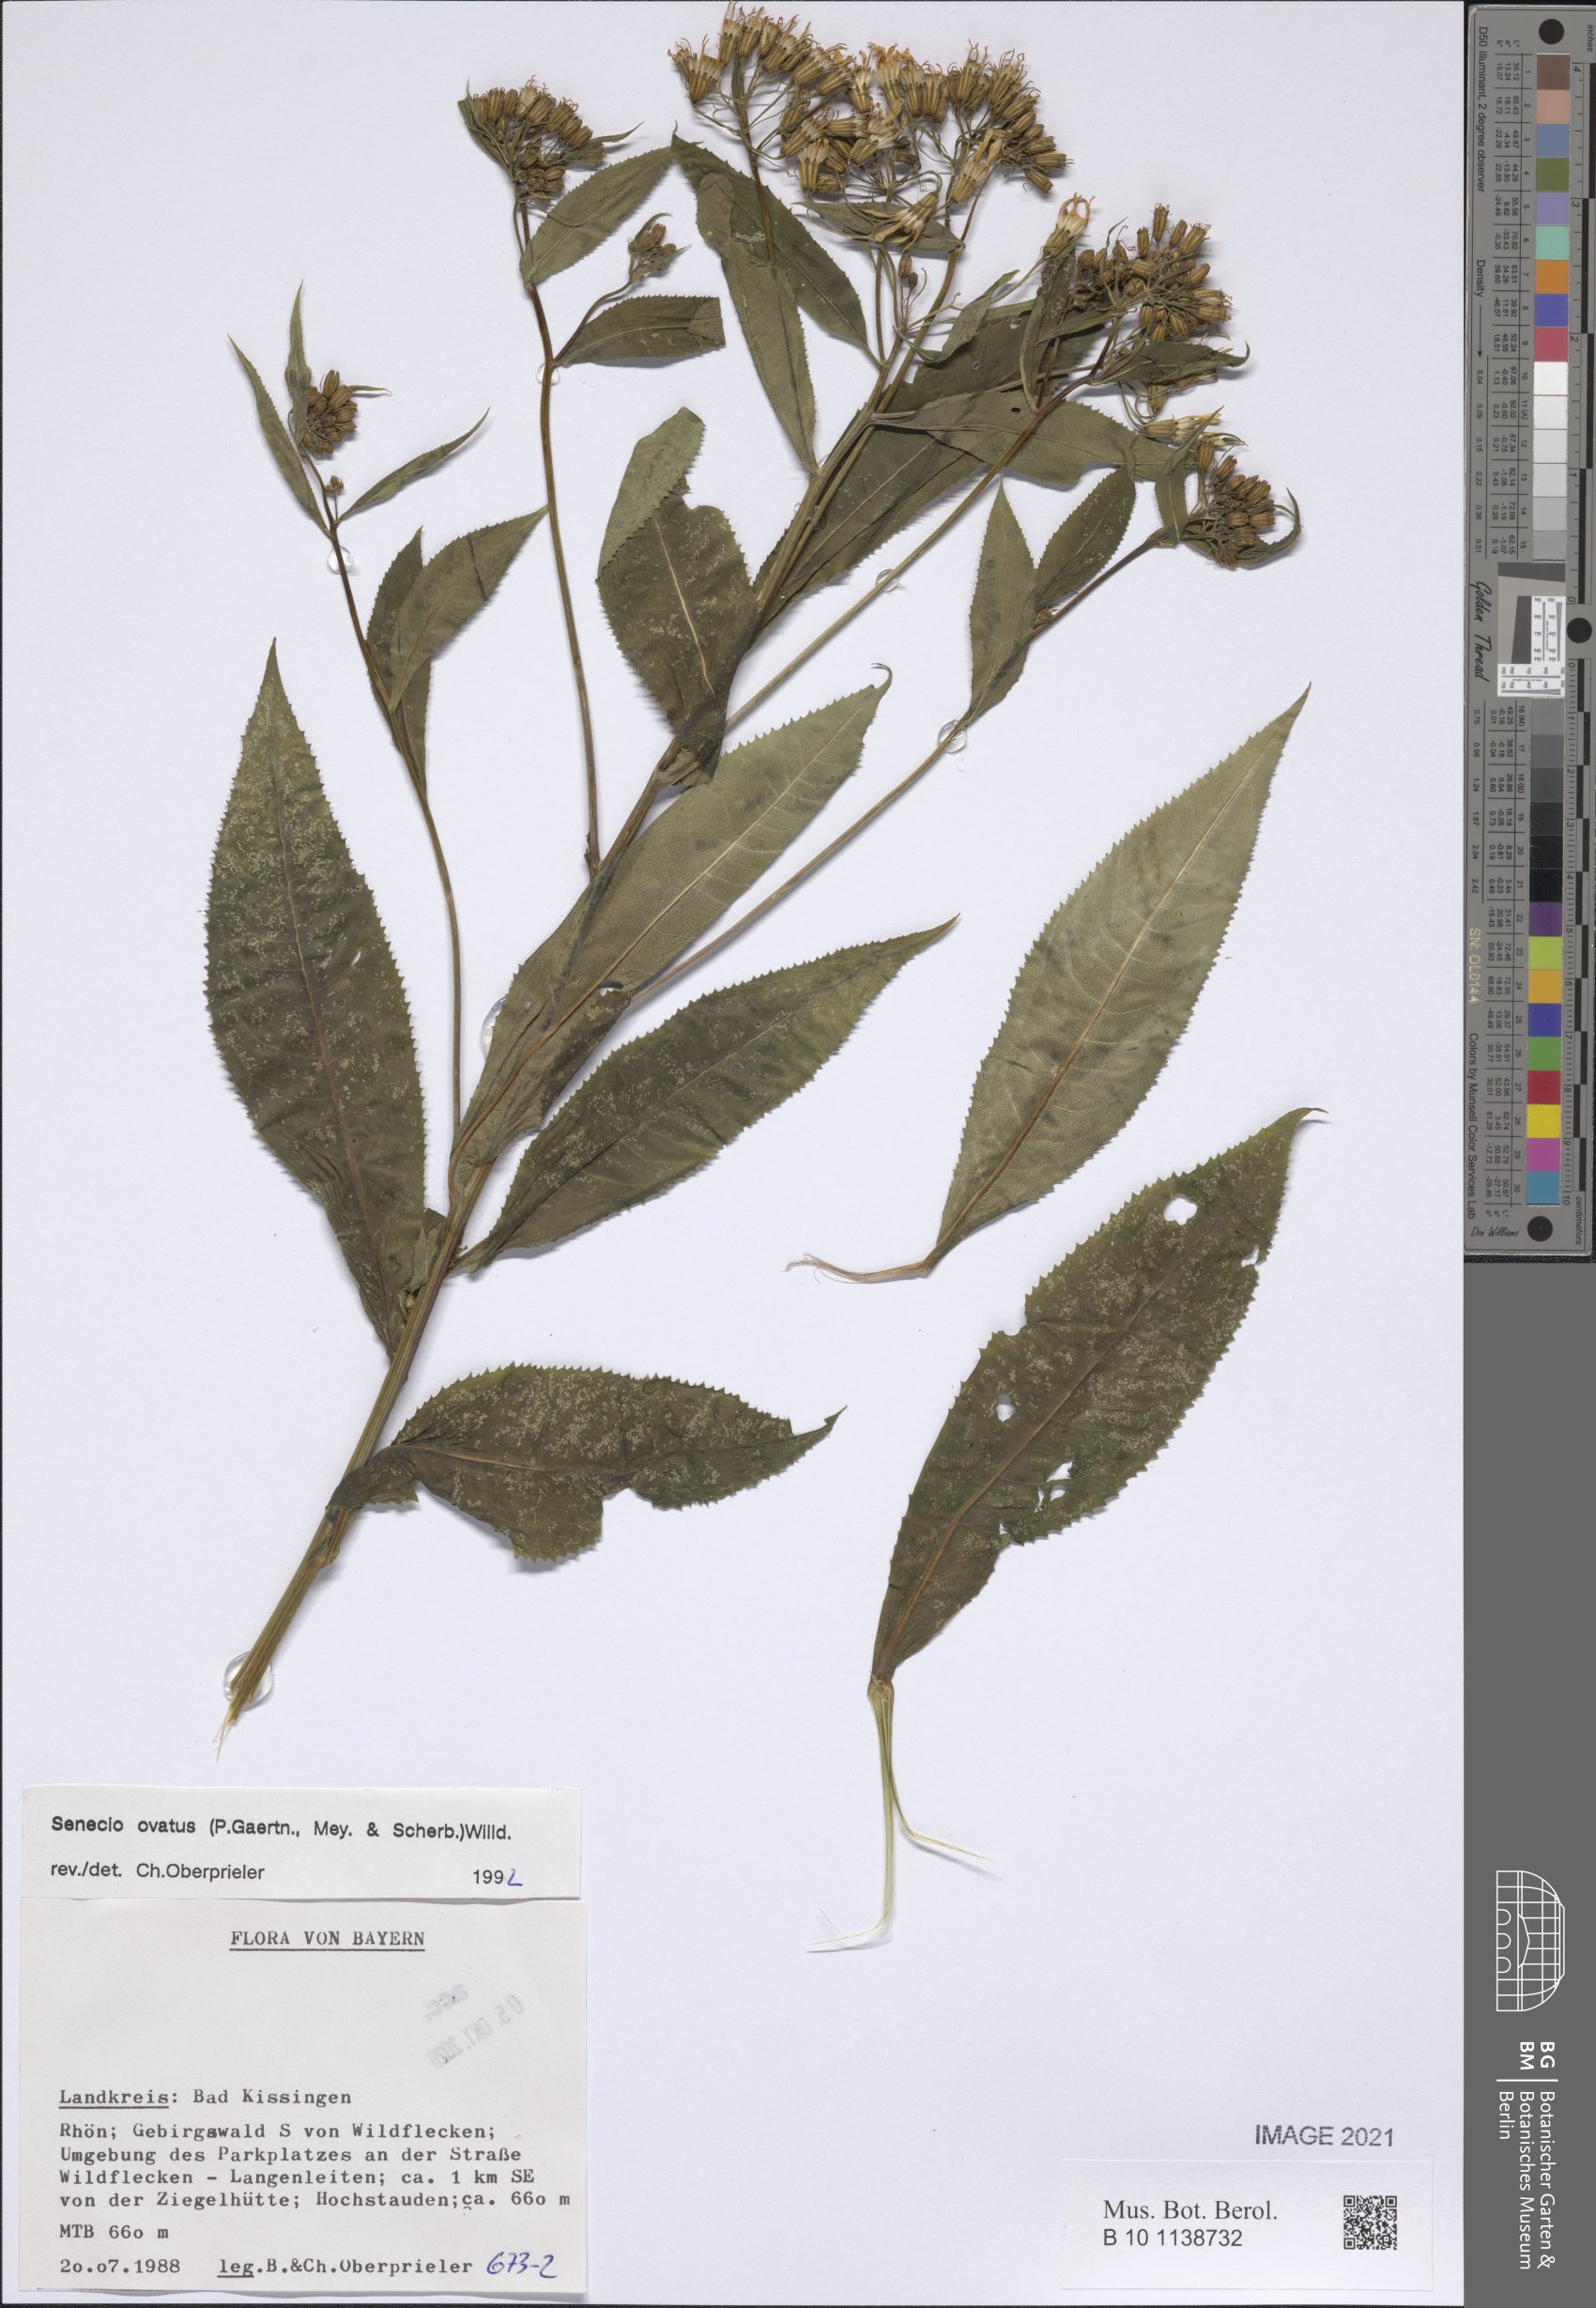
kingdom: Plantae
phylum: Tracheophyta
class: Magnoliopsida
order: Asterales
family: Asteraceae
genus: Senecio
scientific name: Senecio ovatus
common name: Wood ragwort
